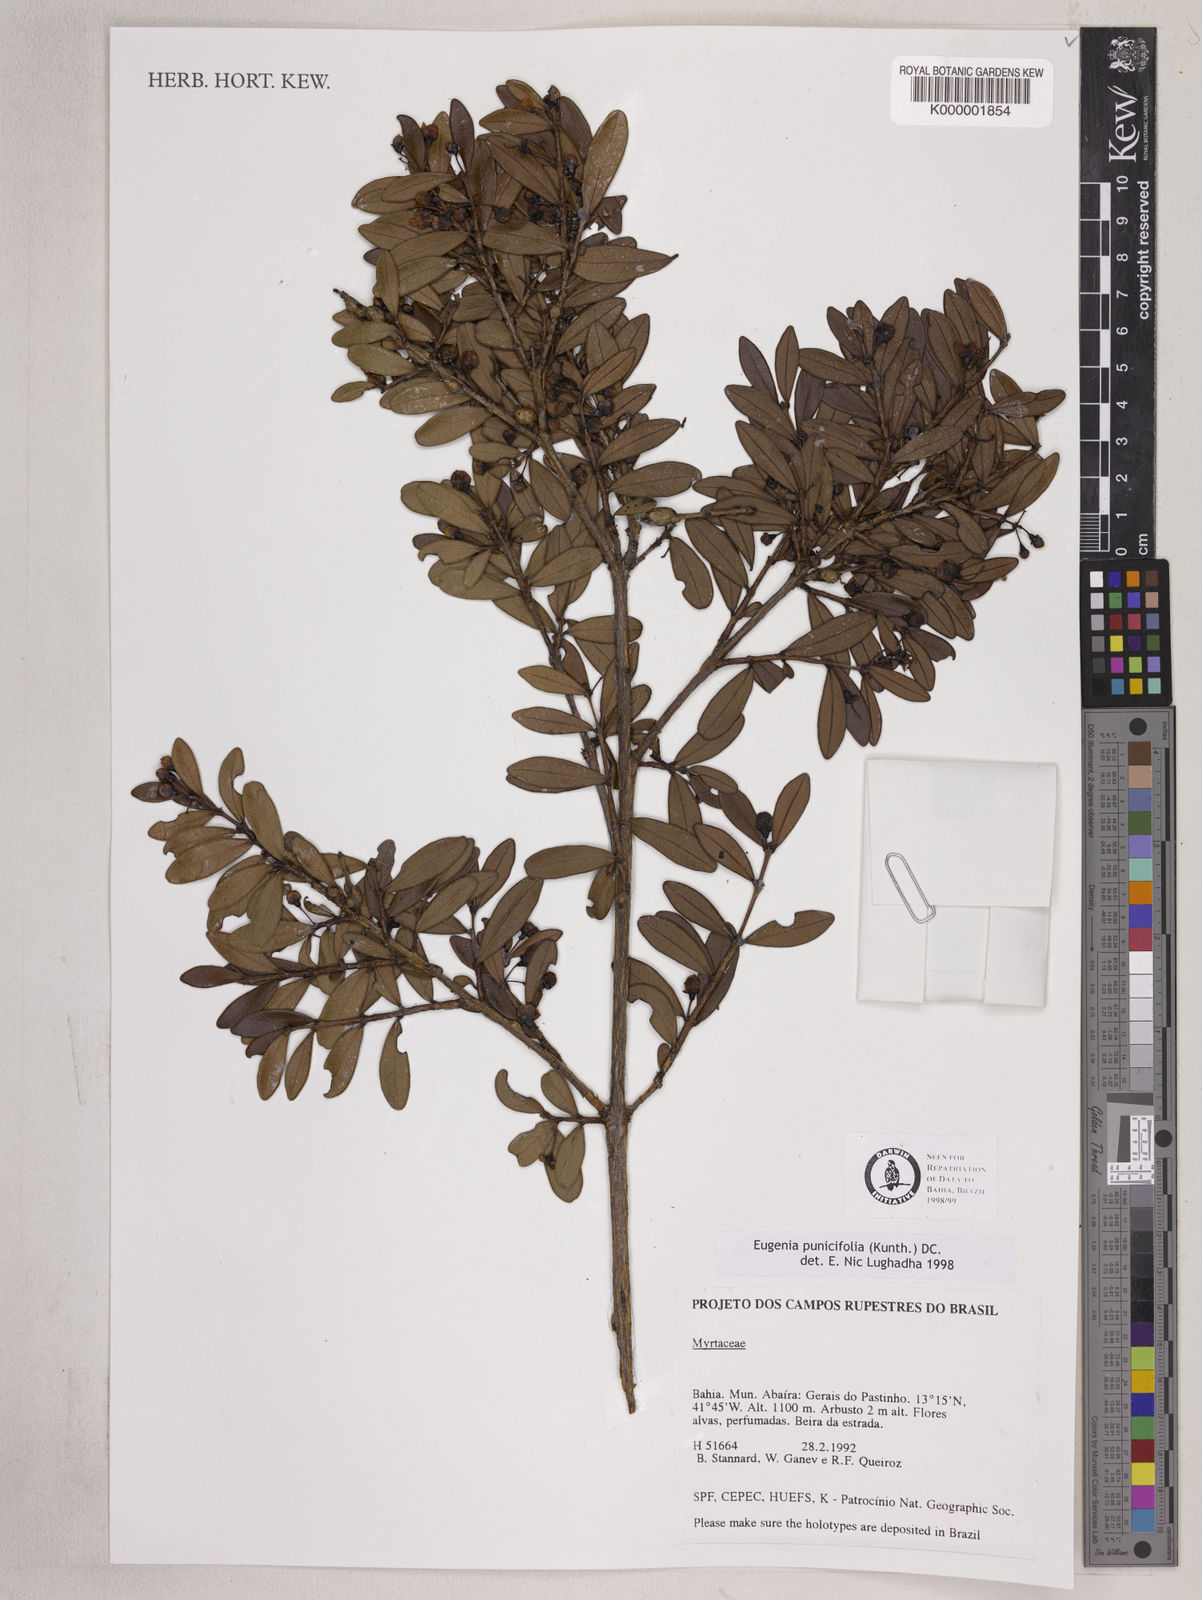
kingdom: Plantae
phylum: Tracheophyta
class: Magnoliopsida
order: Myrtales
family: Myrtaceae
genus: Eugenia
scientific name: Eugenia punicifolia
